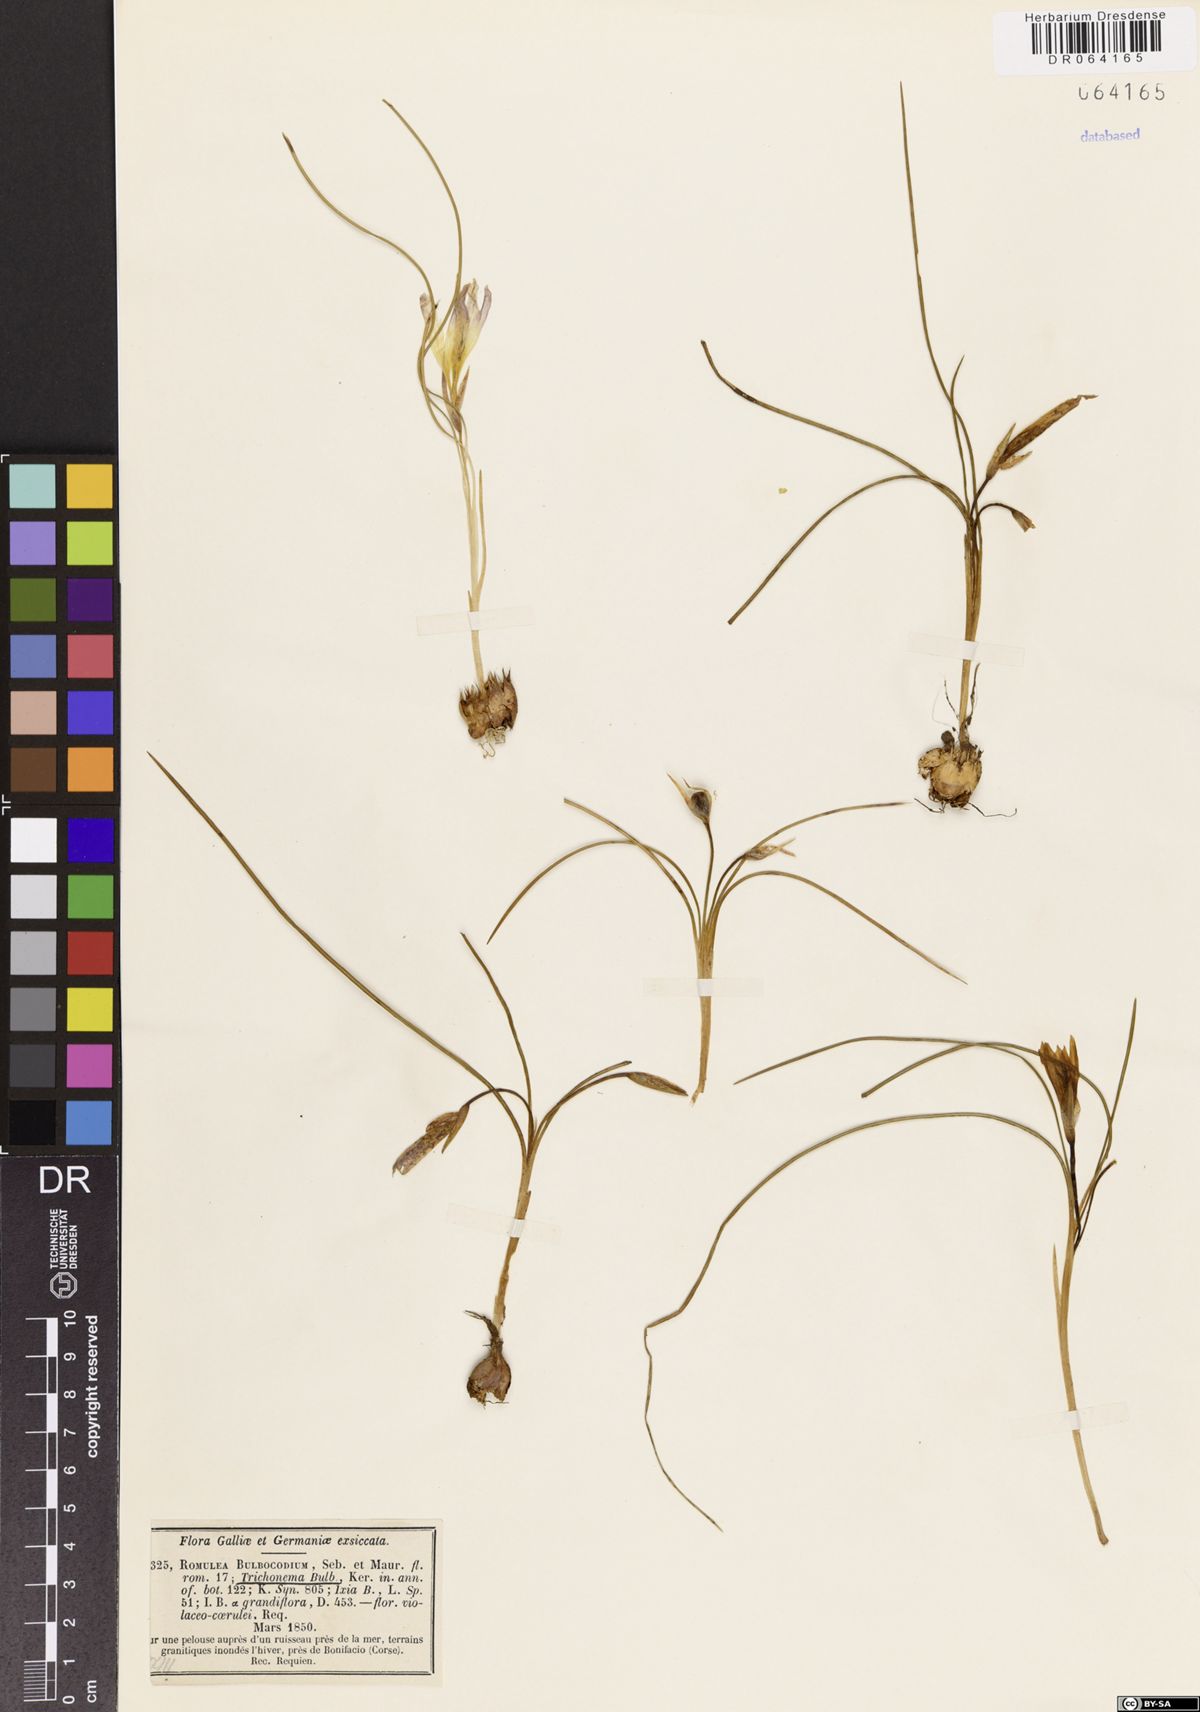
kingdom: Plantae
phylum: Tracheophyta
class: Liliopsida
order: Asparagales
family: Iridaceae
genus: Romulea
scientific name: Romulea bulbocodium
